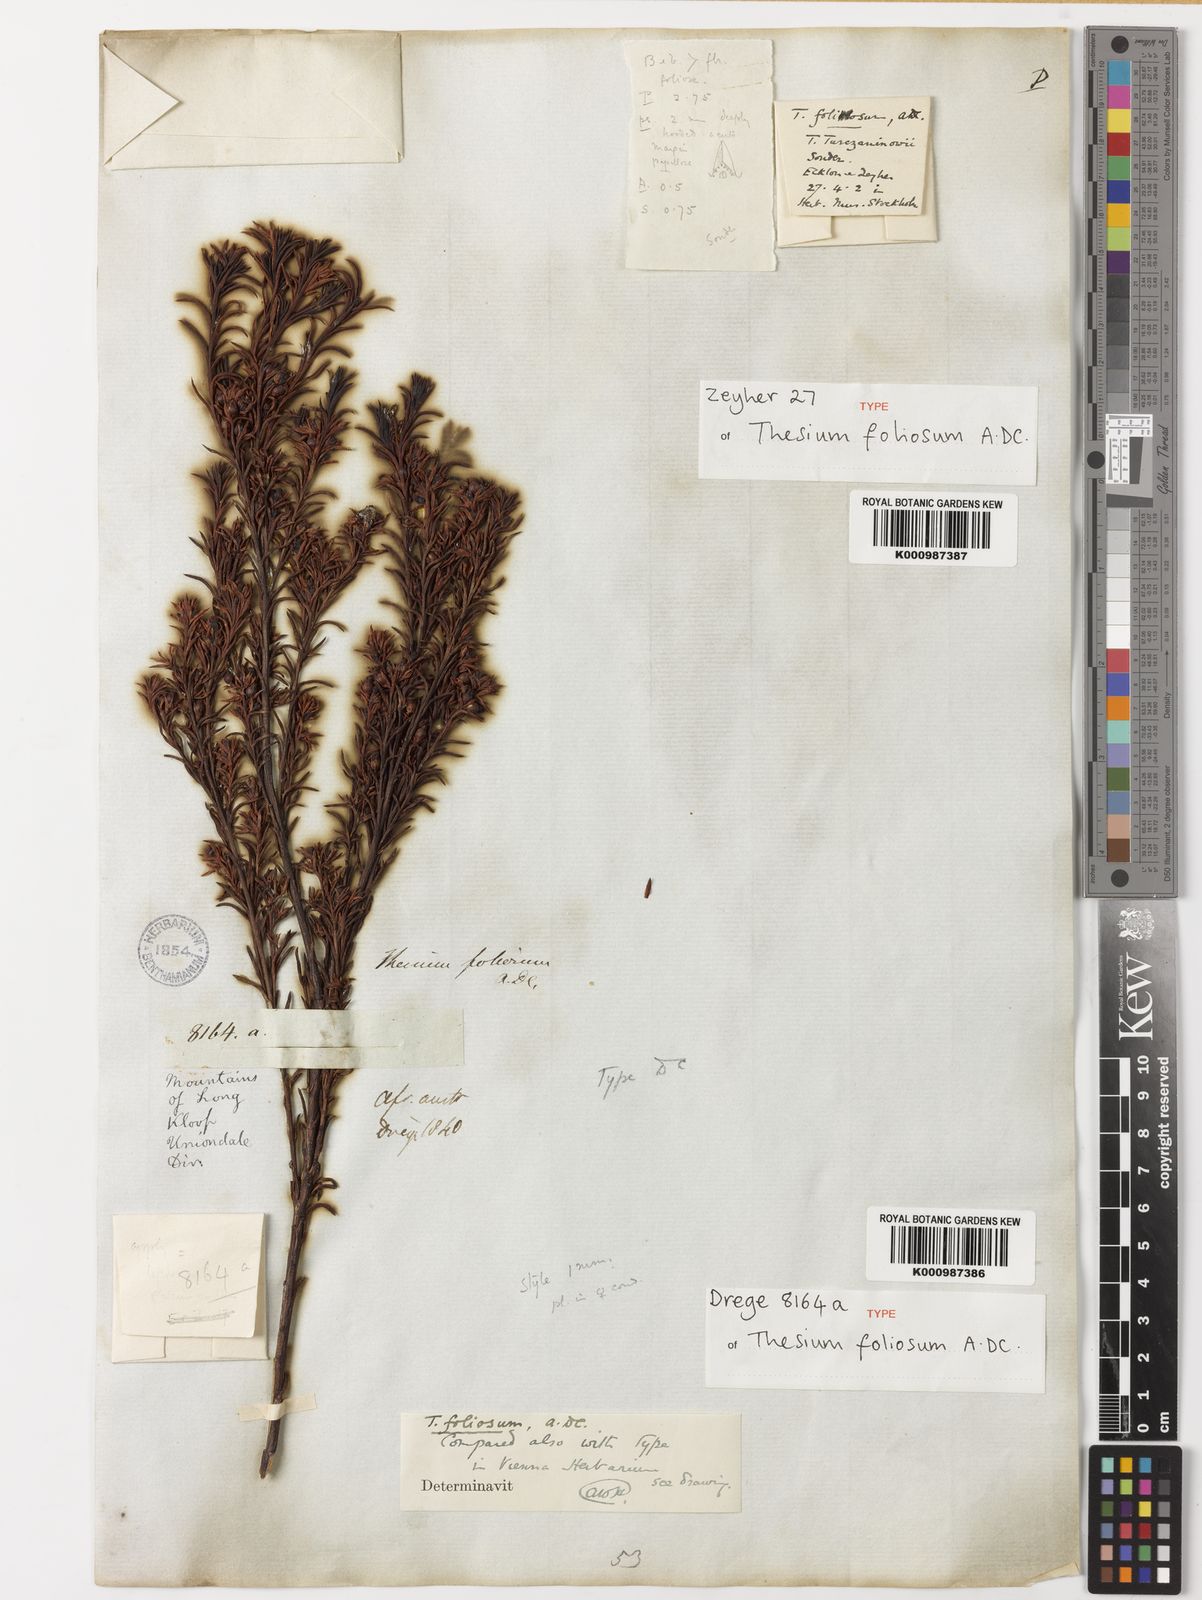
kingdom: Plantae
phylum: Tracheophyta
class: Magnoliopsida
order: Santalales
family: Thesiaceae
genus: Thesium
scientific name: Thesium foliosum
